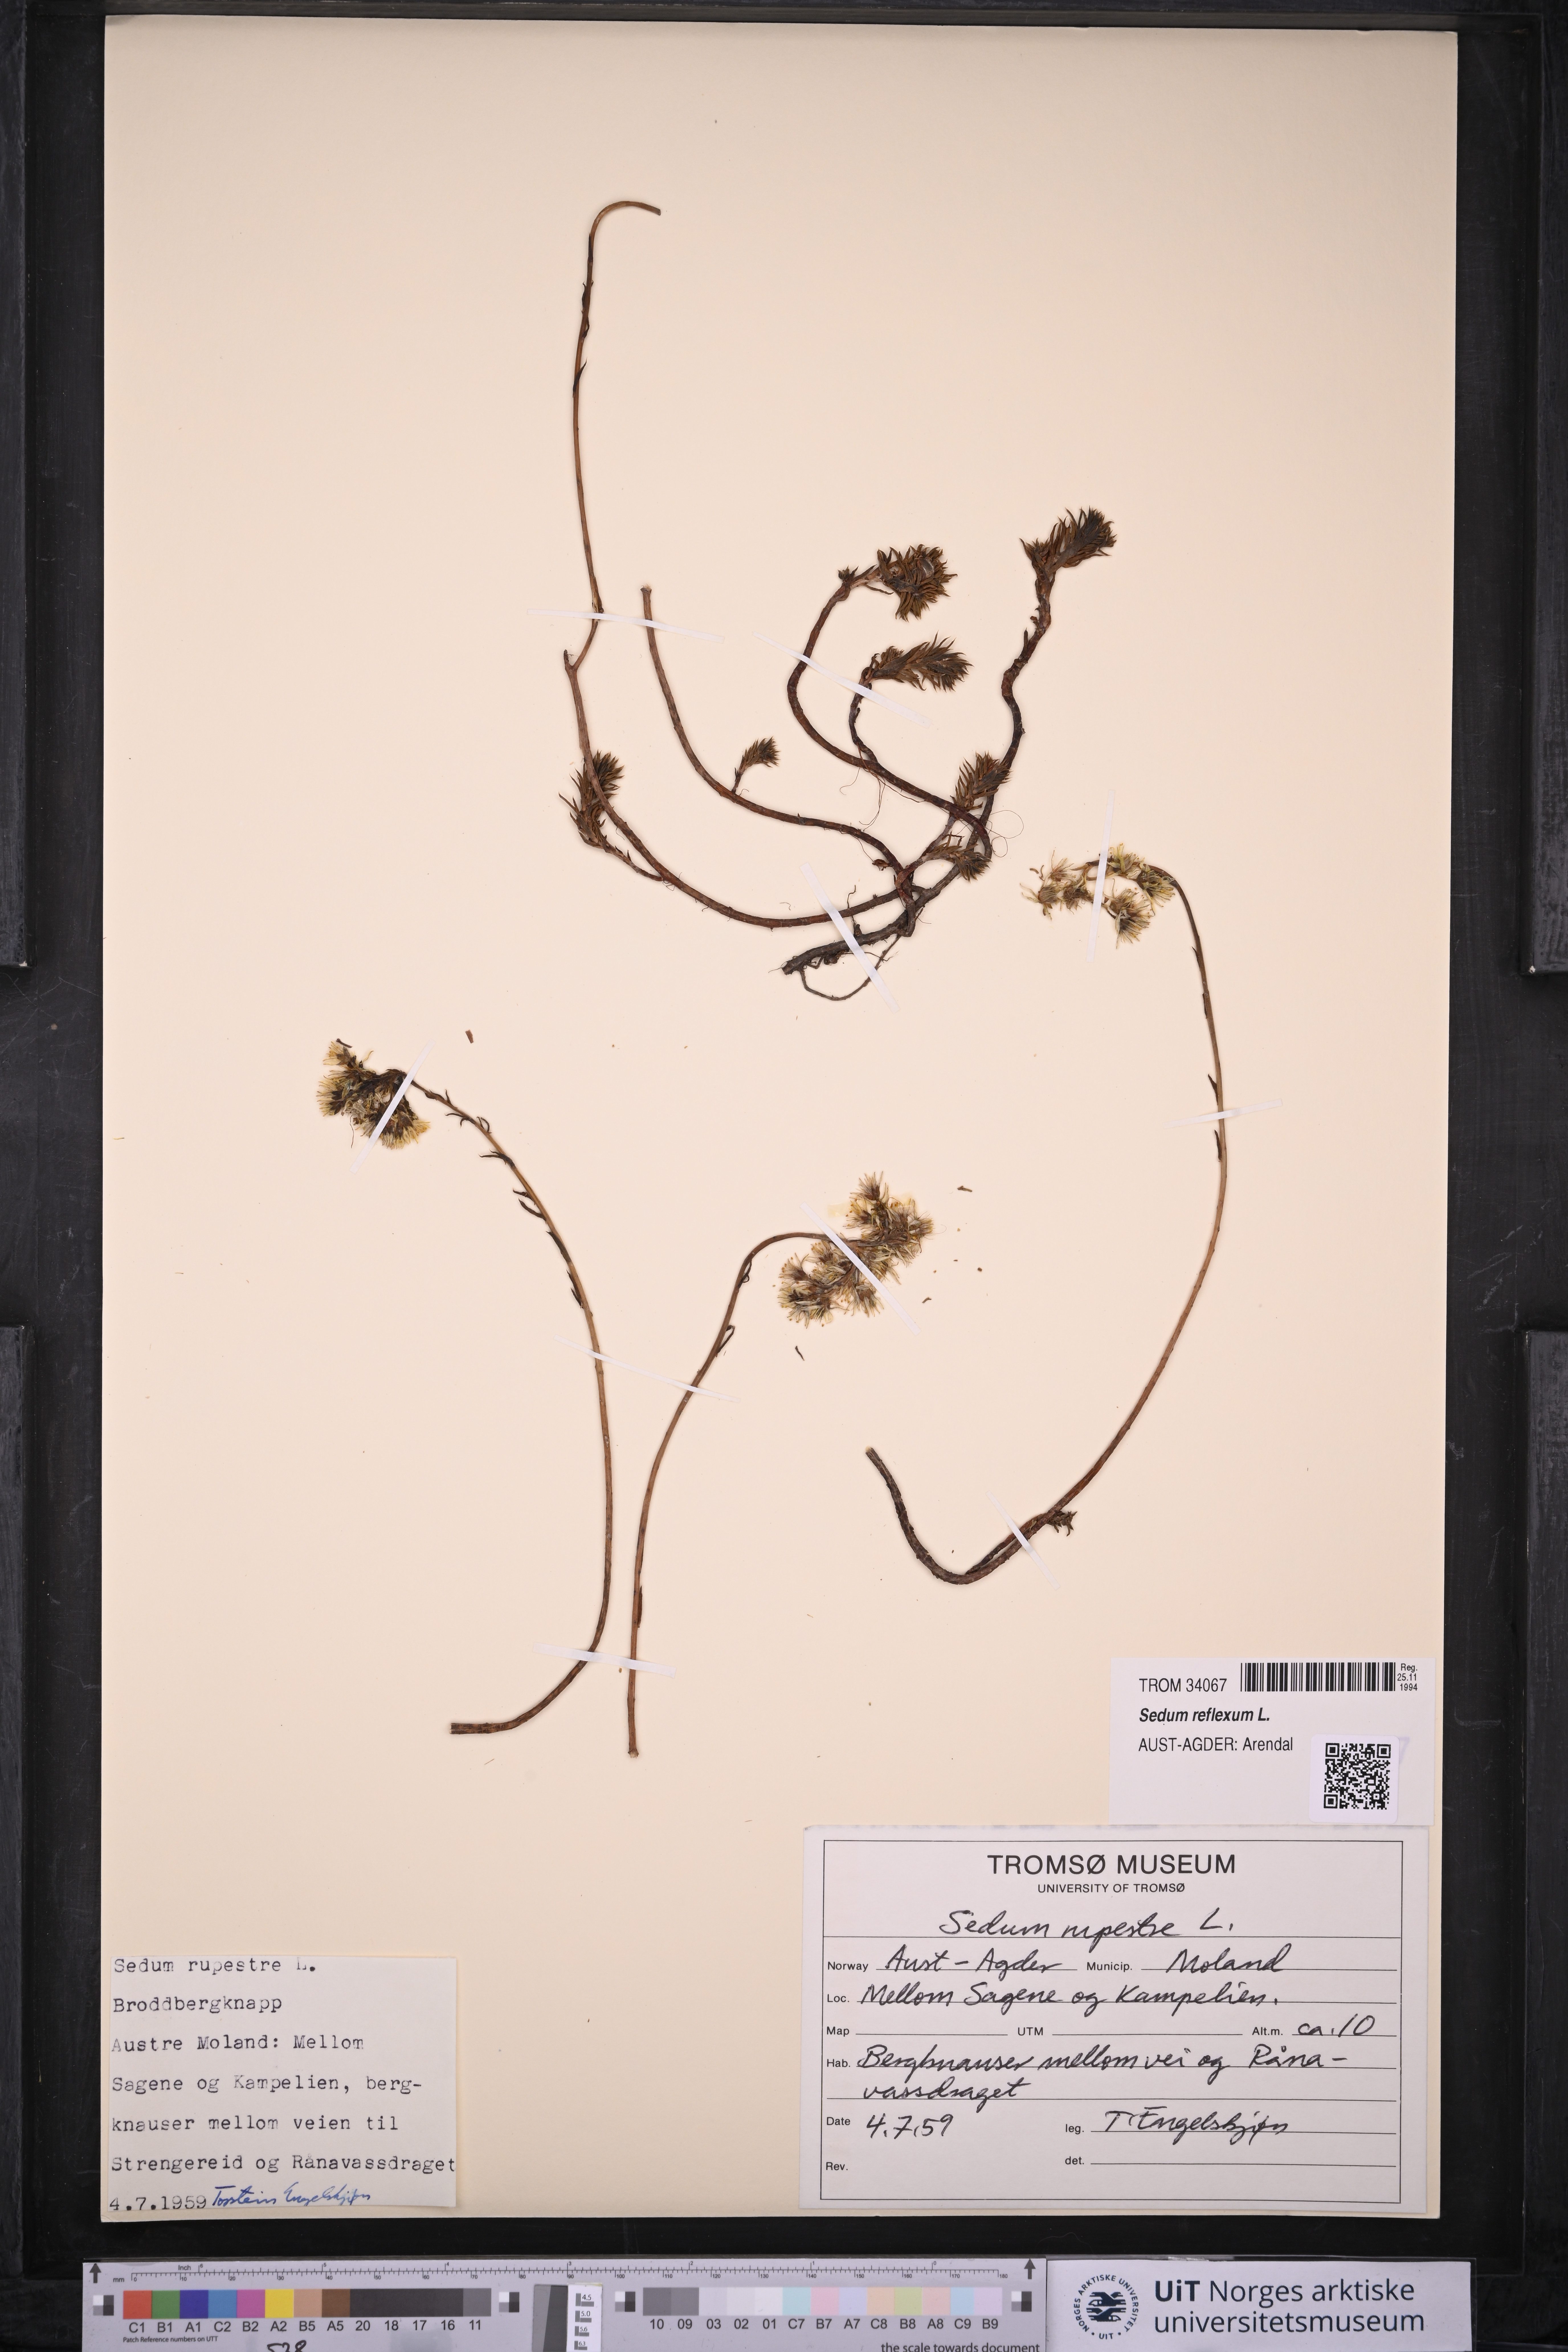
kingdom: Plantae
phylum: Tracheophyta
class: Magnoliopsida
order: Saxifragales
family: Crassulaceae
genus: Petrosedum
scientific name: Petrosedum rupestre
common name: Jenny's stonecrop
